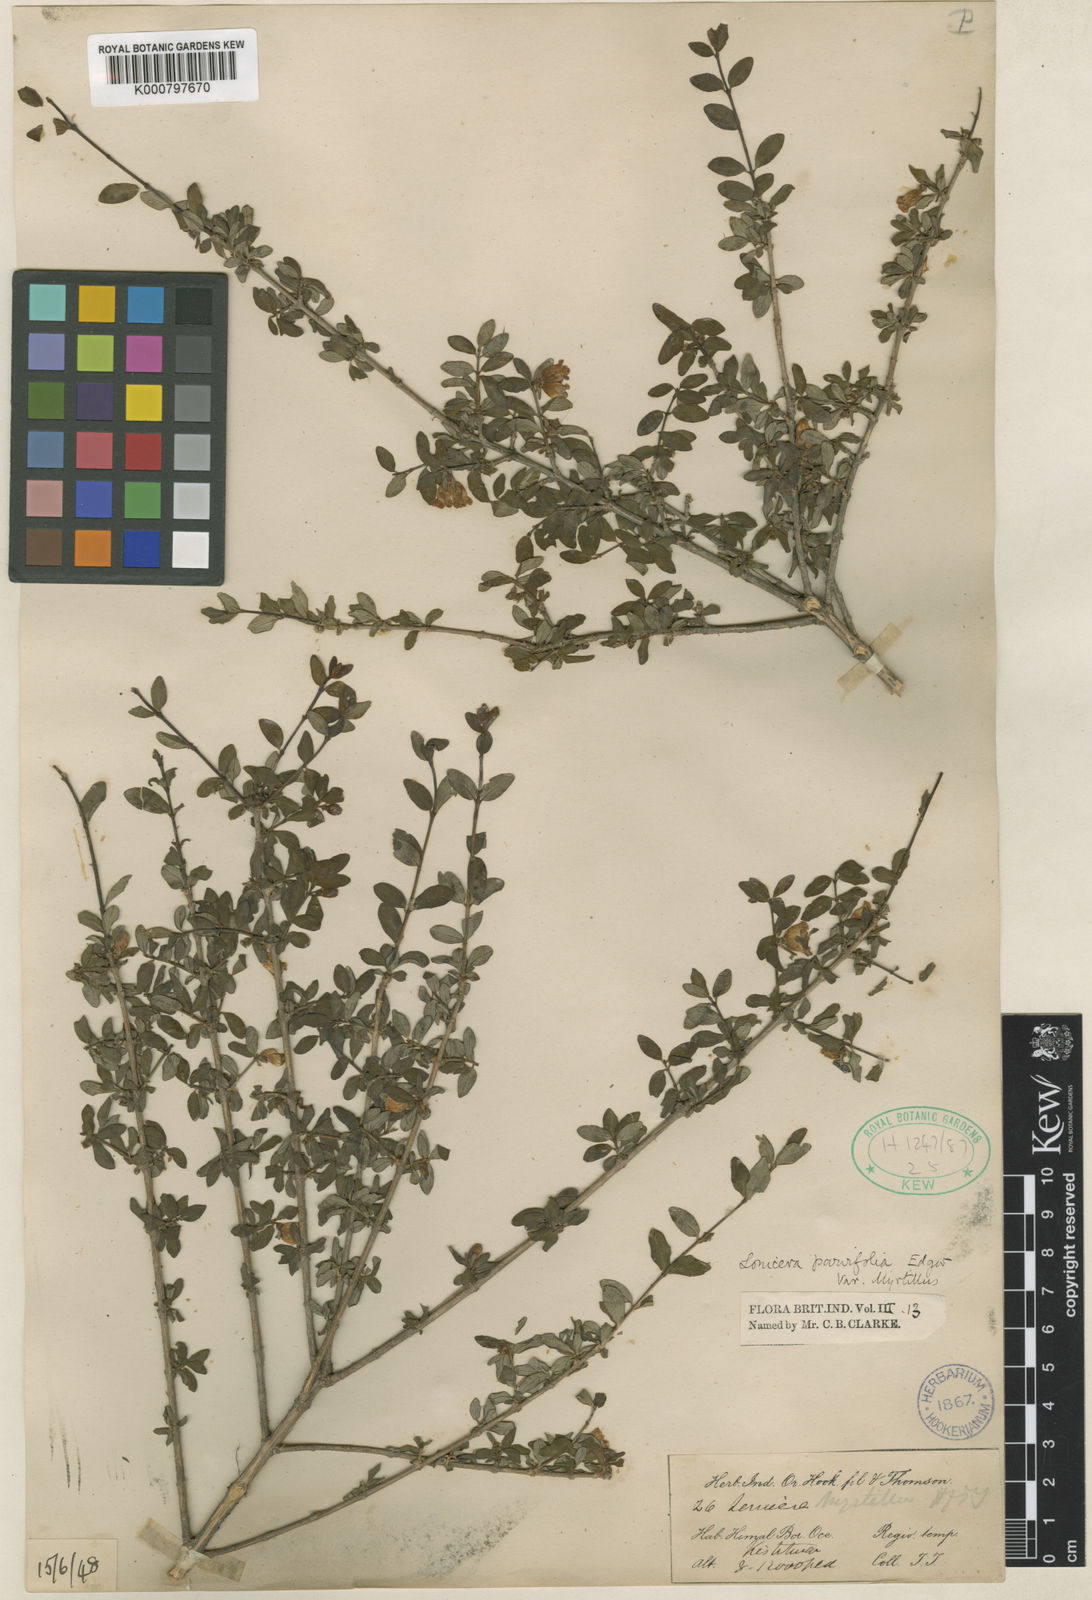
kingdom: Plantae
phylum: Tracheophyta
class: Magnoliopsida
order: Dipsacales
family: Caprifoliaceae
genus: Lonicera
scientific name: Lonicera angustifolia
